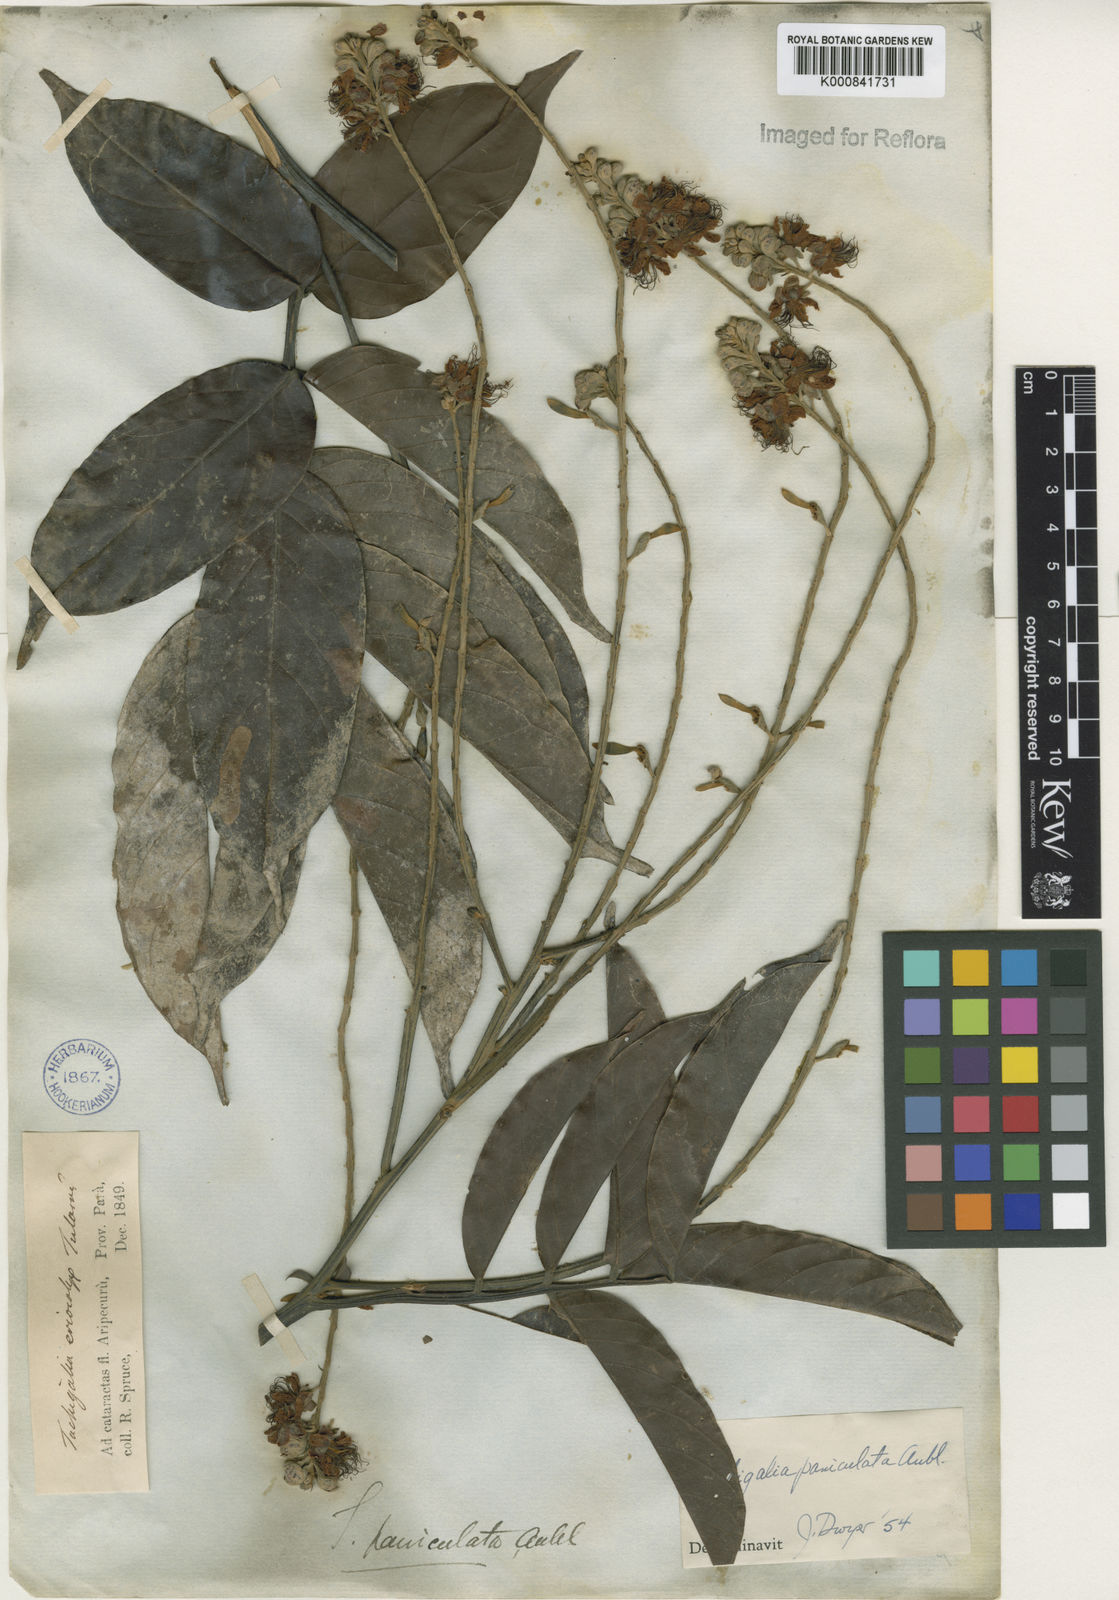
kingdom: Plantae
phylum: Tracheophyta
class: Magnoliopsida
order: Fabales
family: Fabaceae
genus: Tachigali
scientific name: Tachigali paniculata
